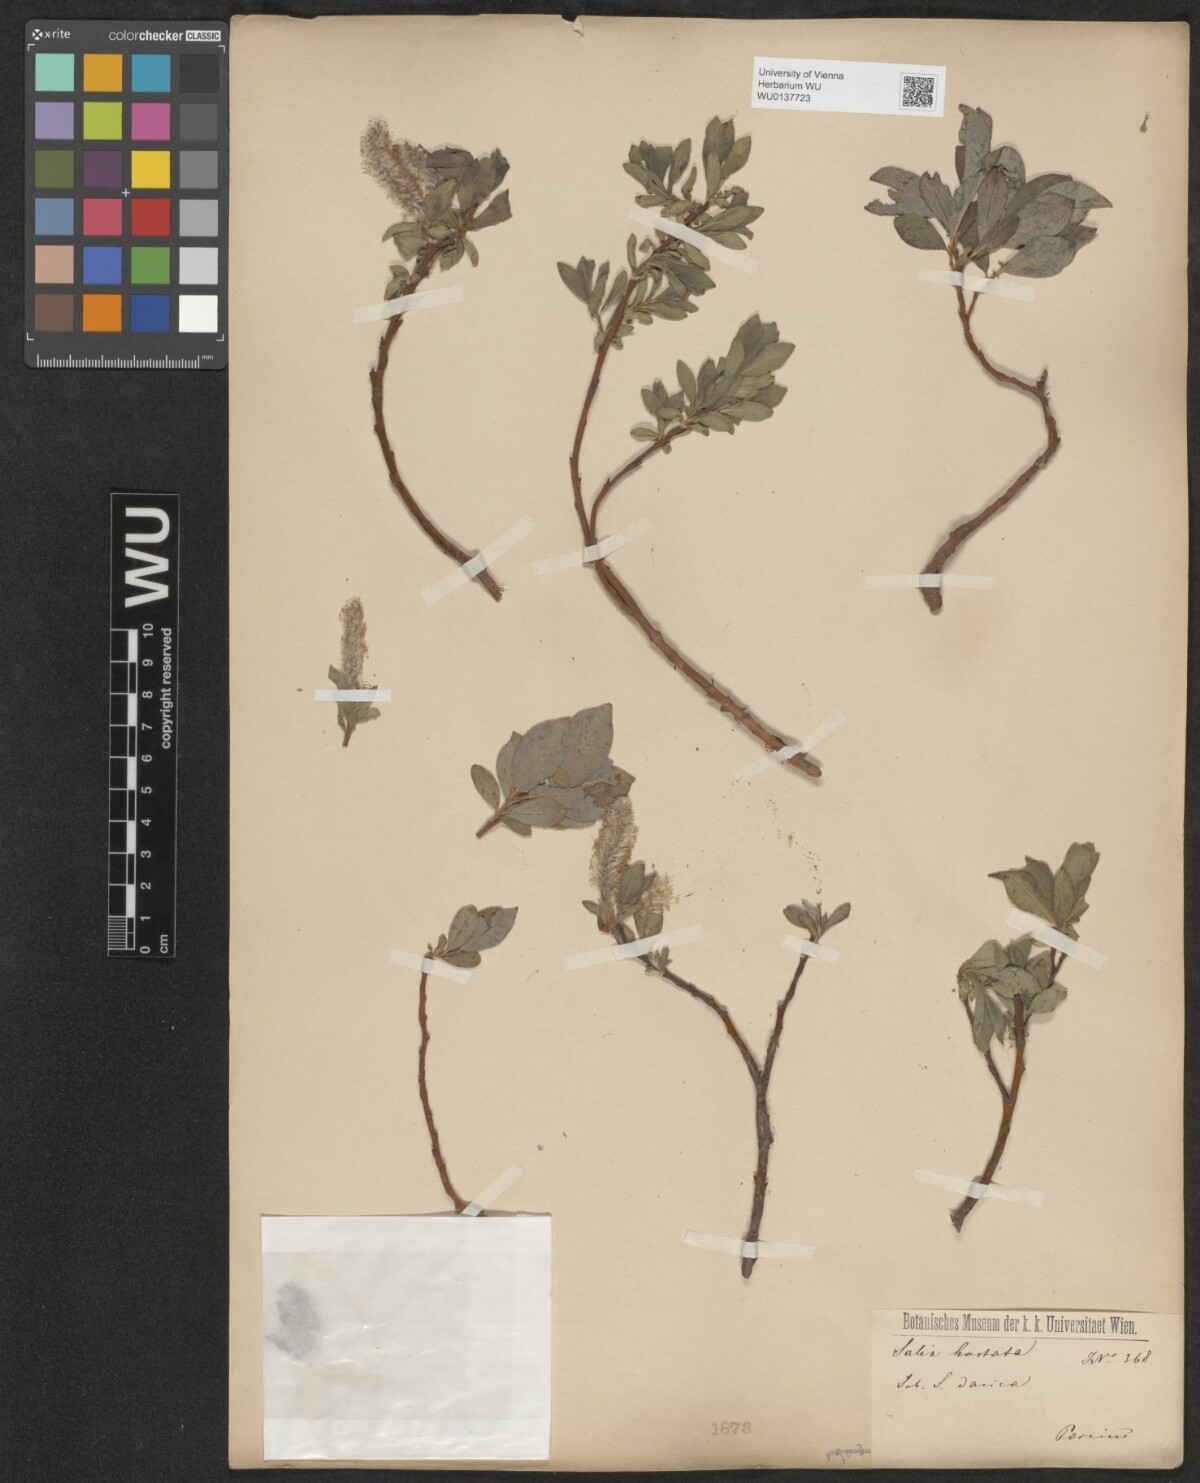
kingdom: Plantae
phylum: Tracheophyta
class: Magnoliopsida
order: Malpighiales
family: Salicaceae
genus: Salix
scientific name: Salix hastata
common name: Halberd willow
